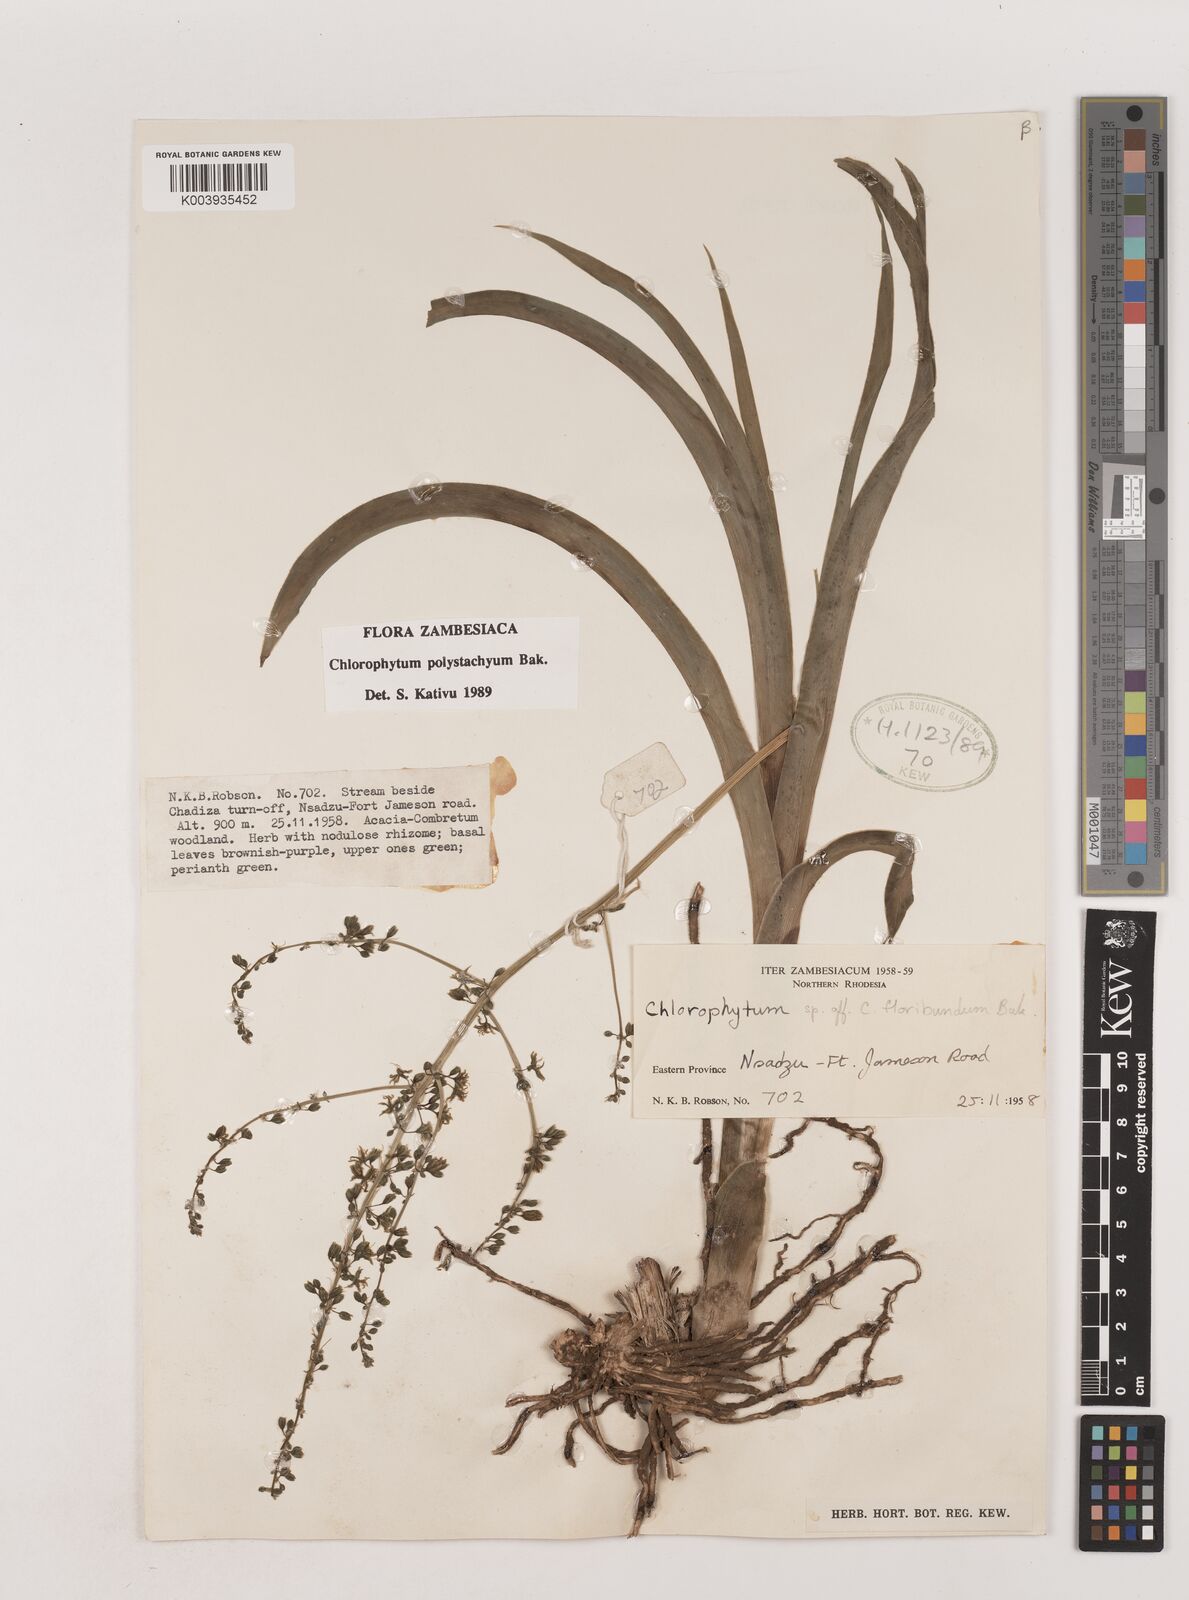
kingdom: Plantae
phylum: Tracheophyta
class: Liliopsida
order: Asparagales
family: Asparagaceae
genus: Chlorophytum
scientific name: Chlorophytum polystachys
